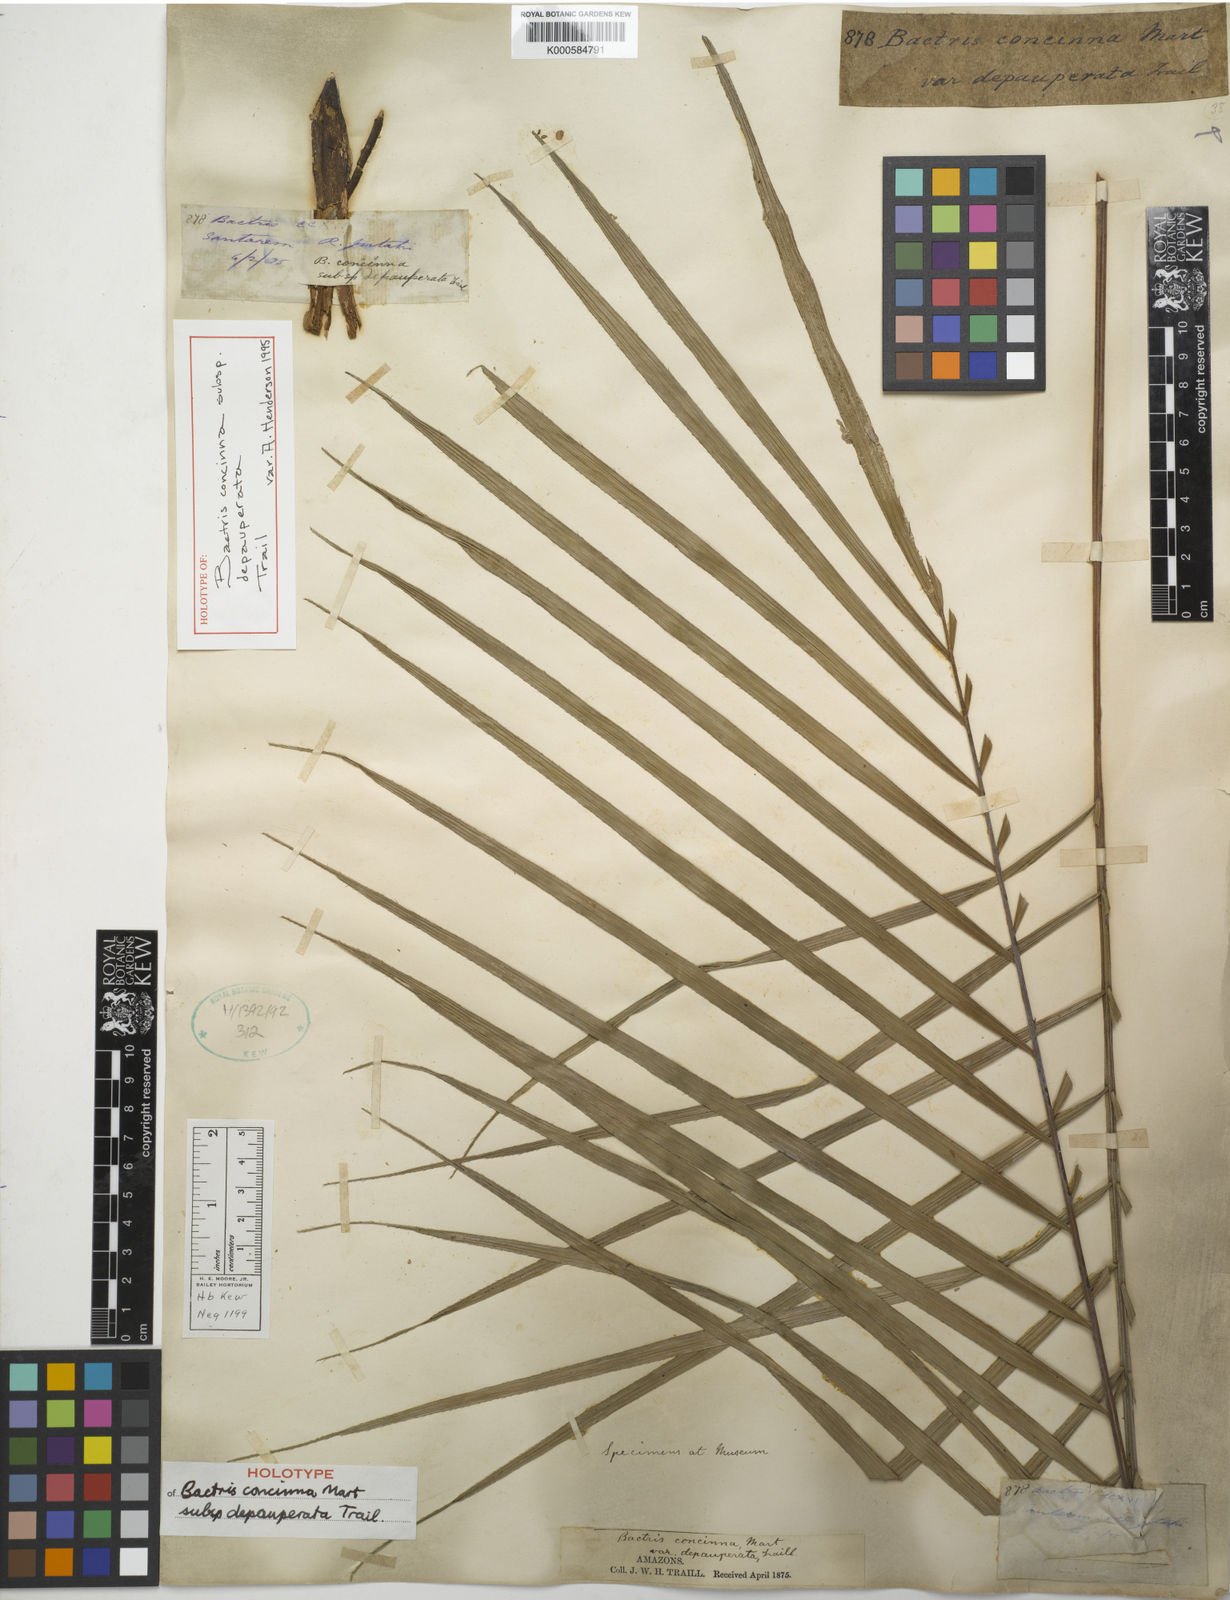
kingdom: Plantae
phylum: Tracheophyta
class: Liliopsida
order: Arecales
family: Arecaceae
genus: Bactris
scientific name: Bactris concinna
